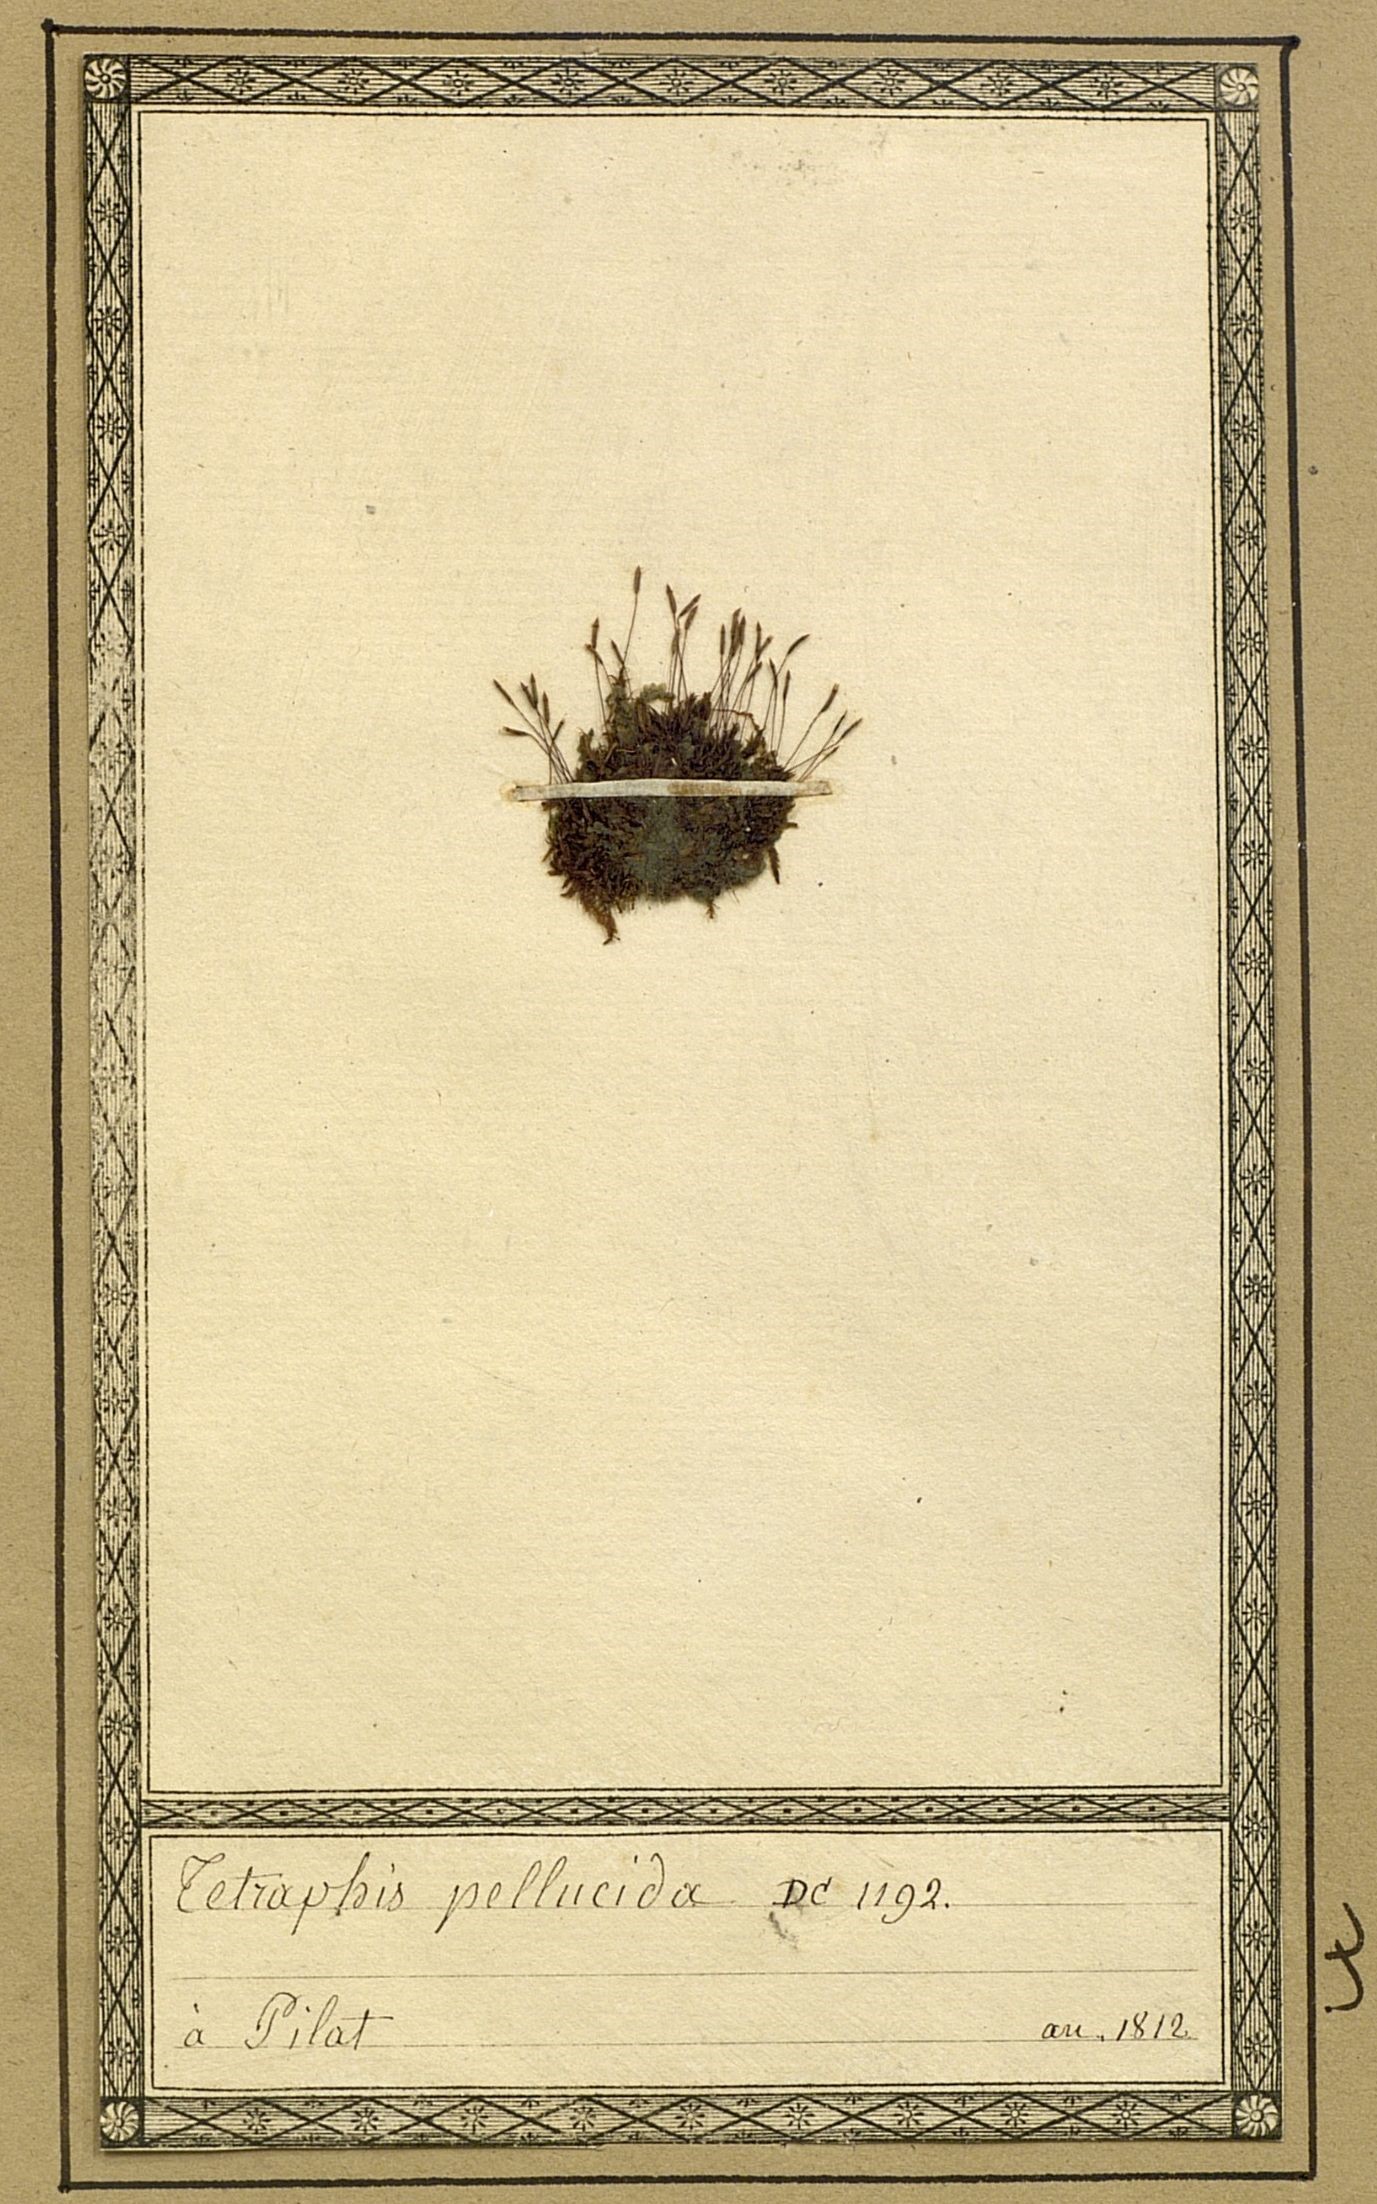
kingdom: Plantae
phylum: Bryophyta
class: Polytrichopsida
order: Tetraphidales
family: Tetraphidaceae
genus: Tetraphis
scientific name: Tetraphis pellucida
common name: Common four-toothed moss
